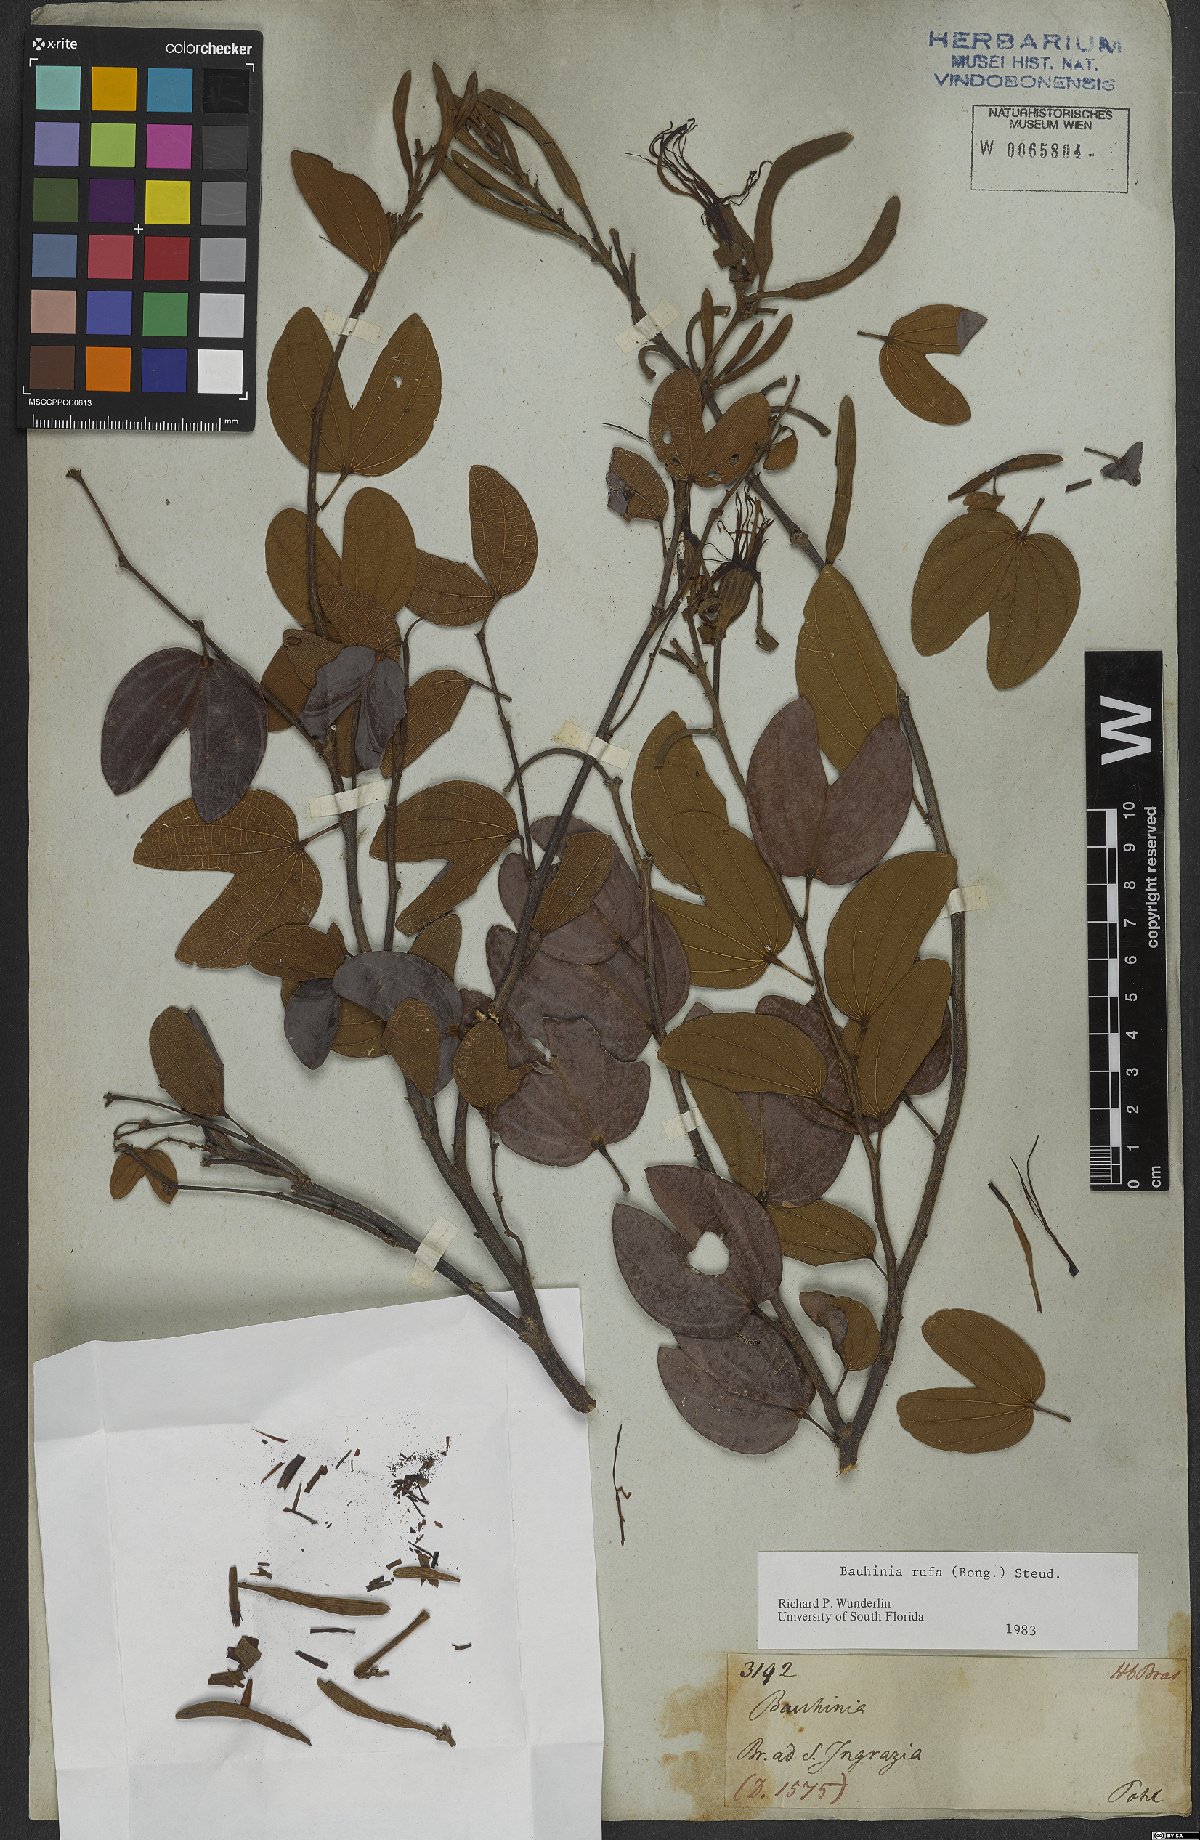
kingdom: Plantae
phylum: Tracheophyta
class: Magnoliopsida
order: Fabales
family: Fabaceae
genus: Bauhinia
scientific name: Bauhinia rufa
